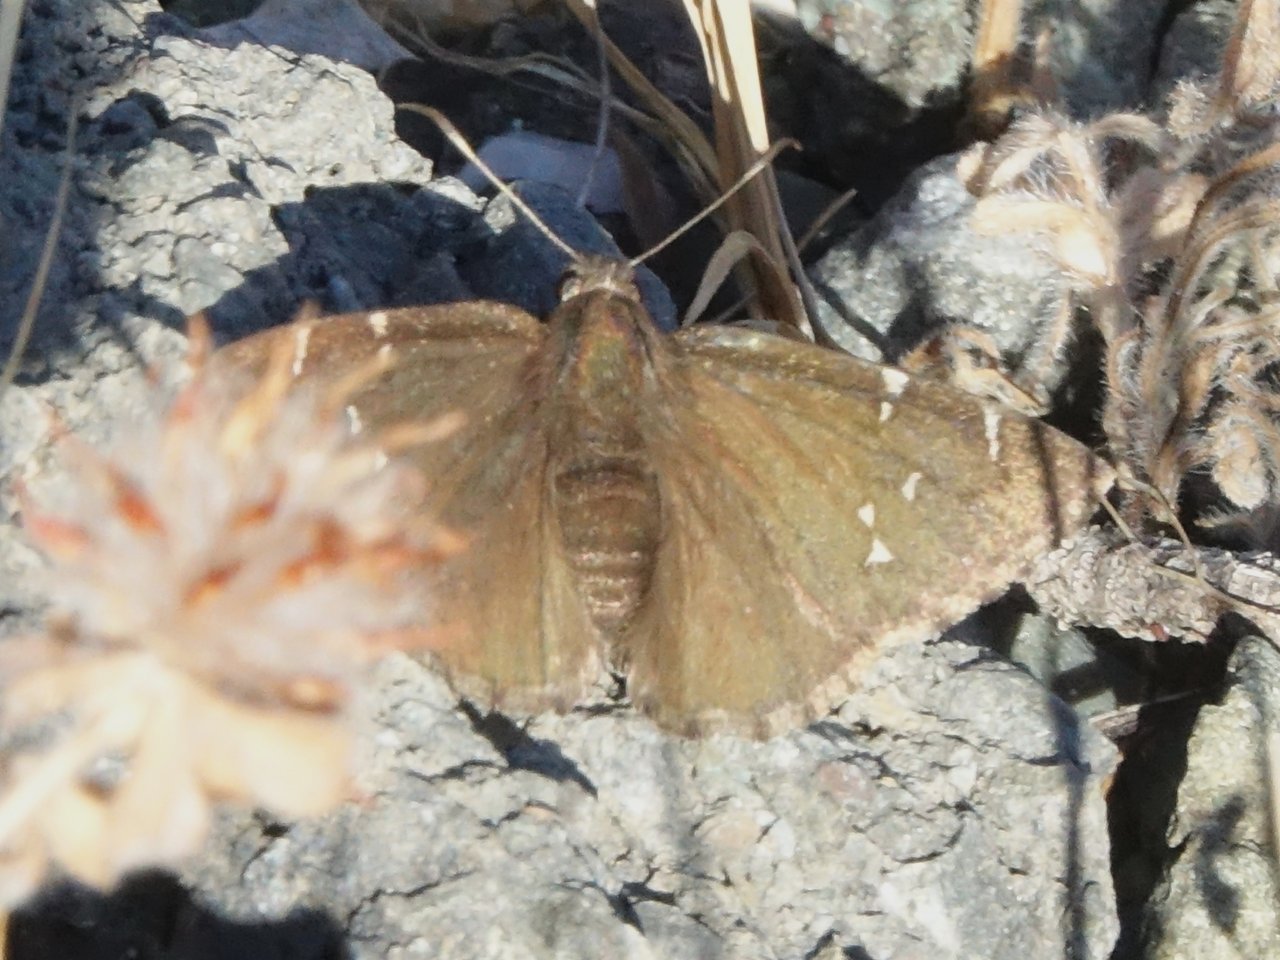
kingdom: Animalia
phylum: Arthropoda
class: Insecta
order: Lepidoptera
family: Hesperiidae
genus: Autochton
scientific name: Autochton
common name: Northern Cloudywing
